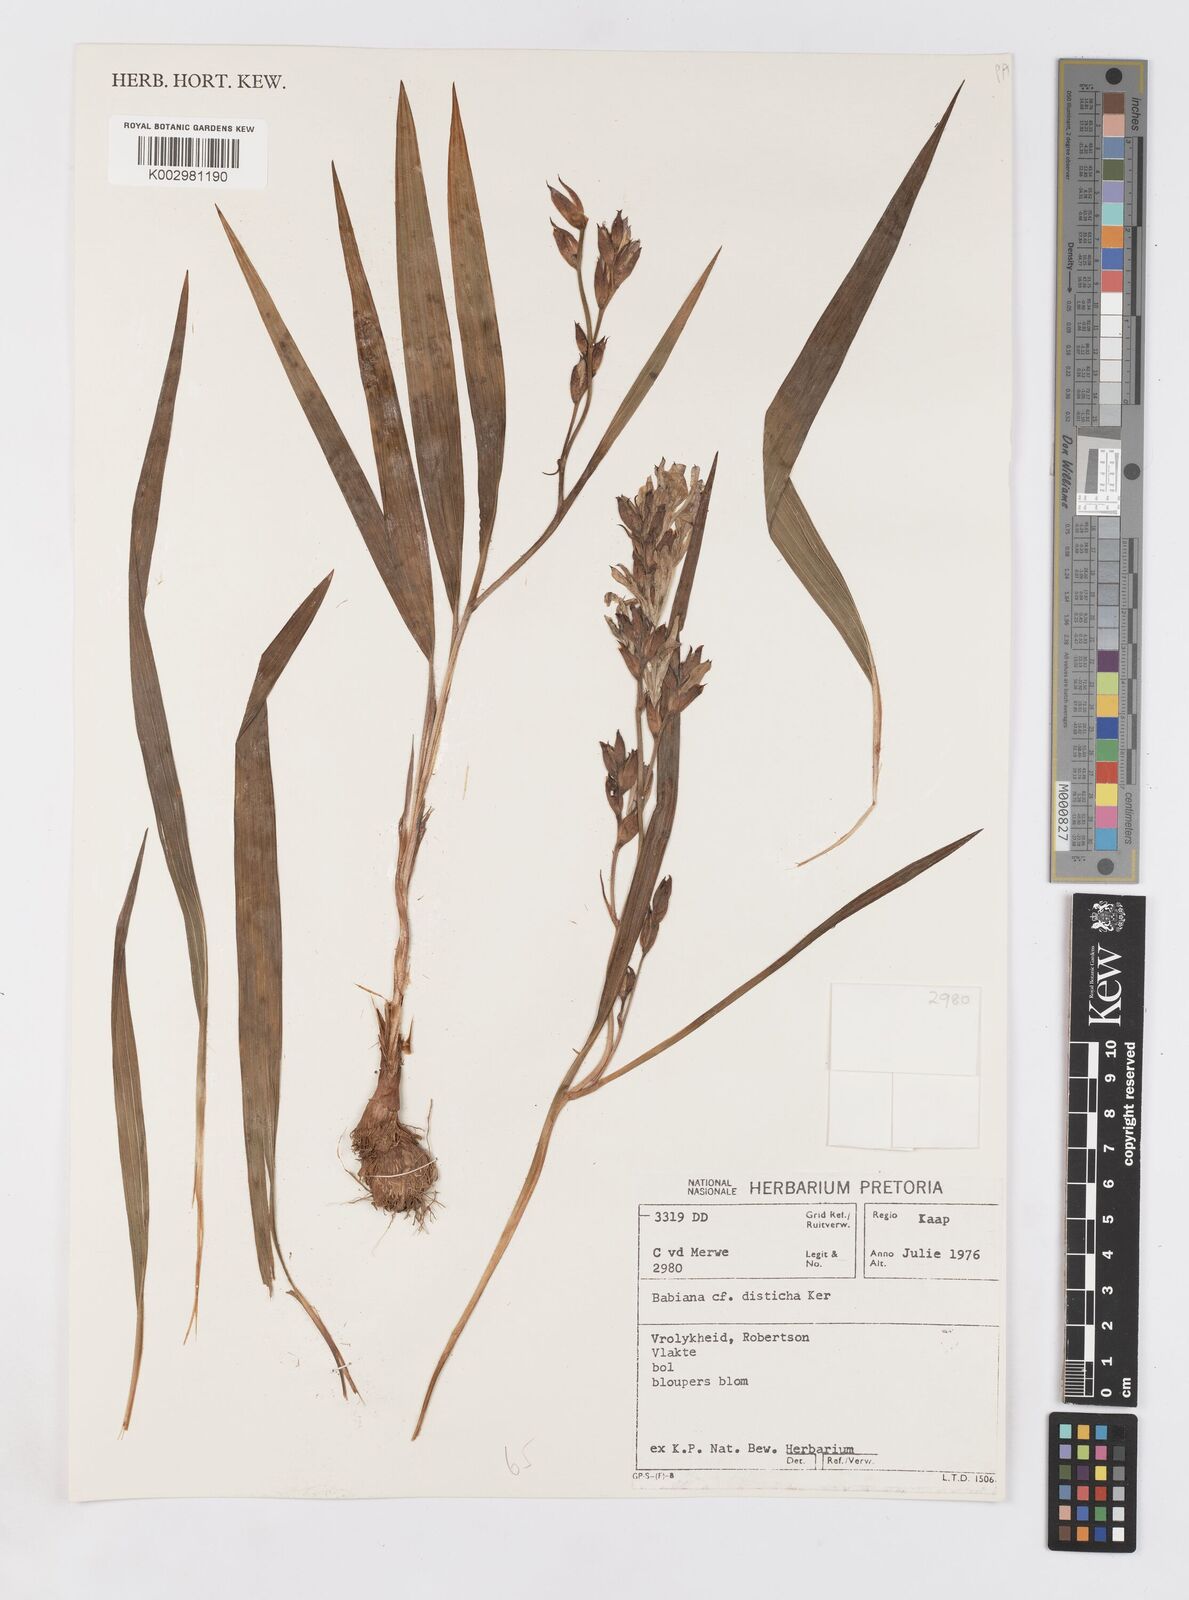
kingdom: Plantae
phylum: Tracheophyta
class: Liliopsida
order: Asparagales
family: Iridaceae
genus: Babiana
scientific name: Babiana fragrans
